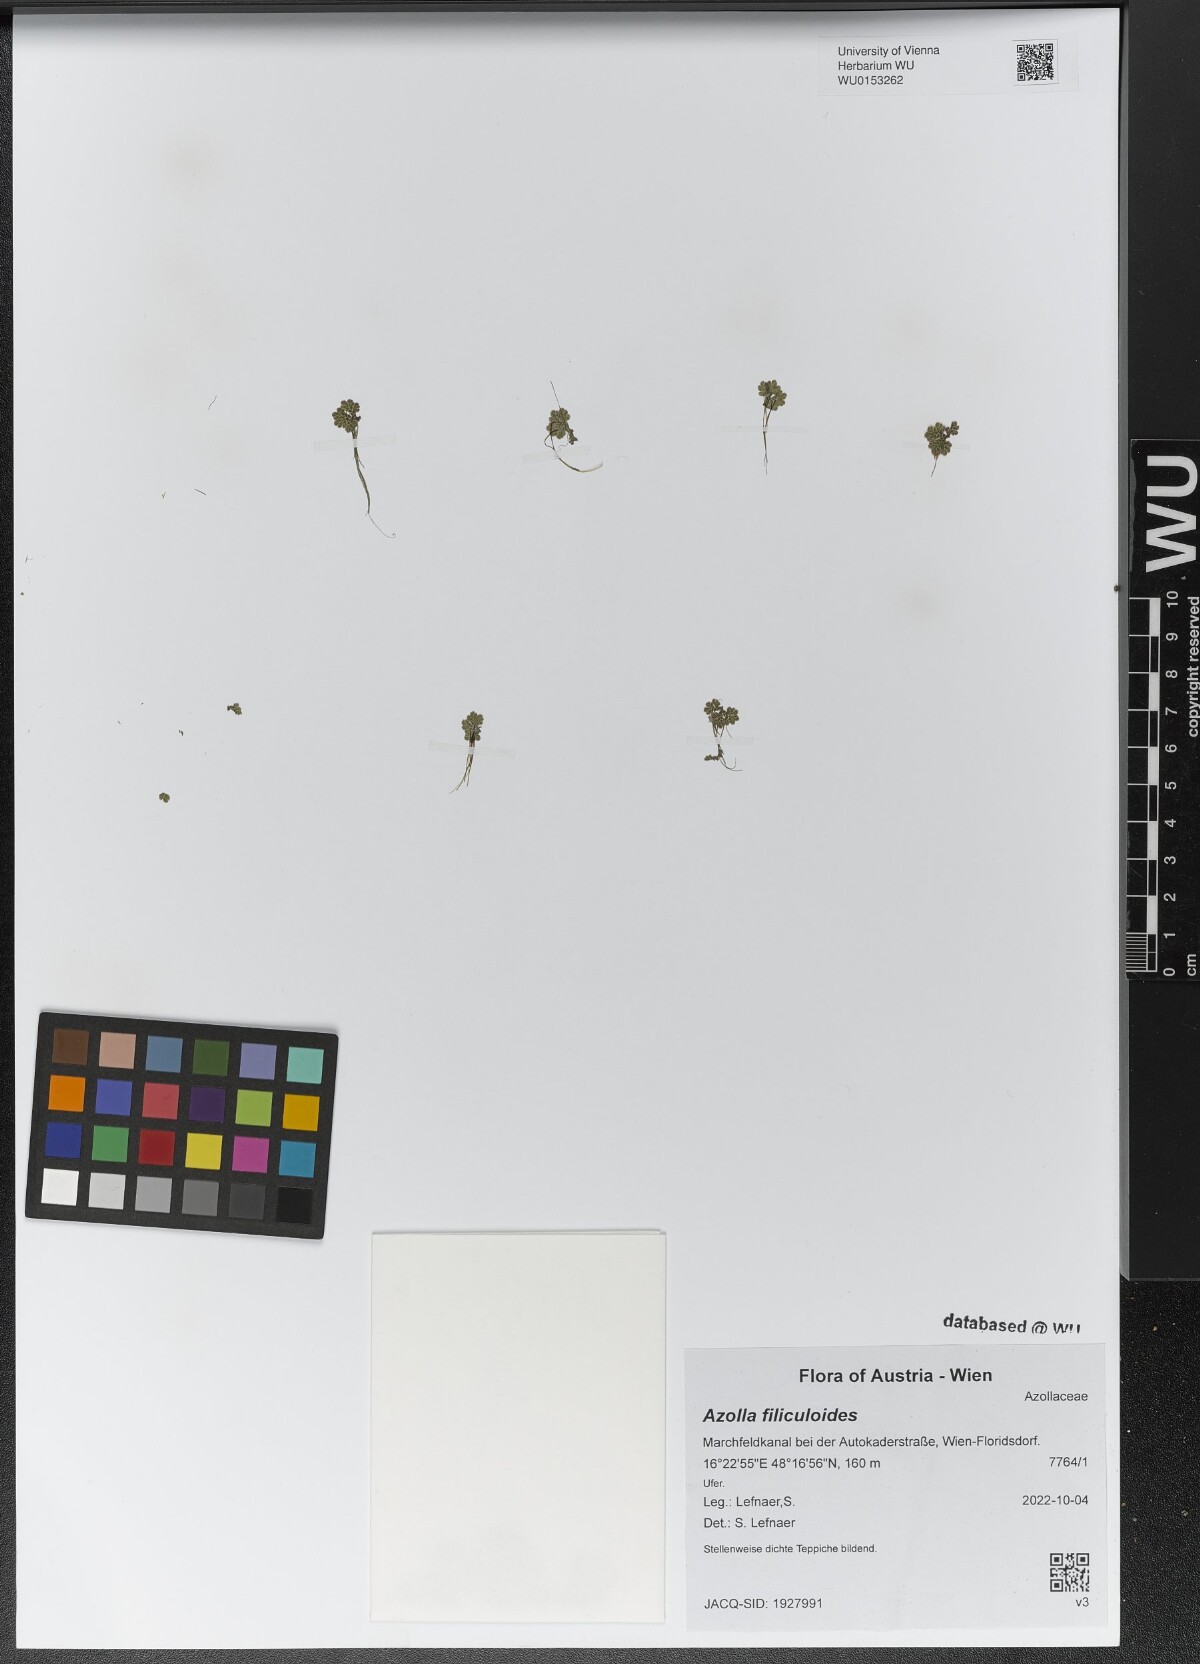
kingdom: Plantae
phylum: Tracheophyta
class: Polypodiopsida
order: Salviniales
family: Salviniaceae
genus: Azolla
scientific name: Azolla filiculoides
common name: Water fern
